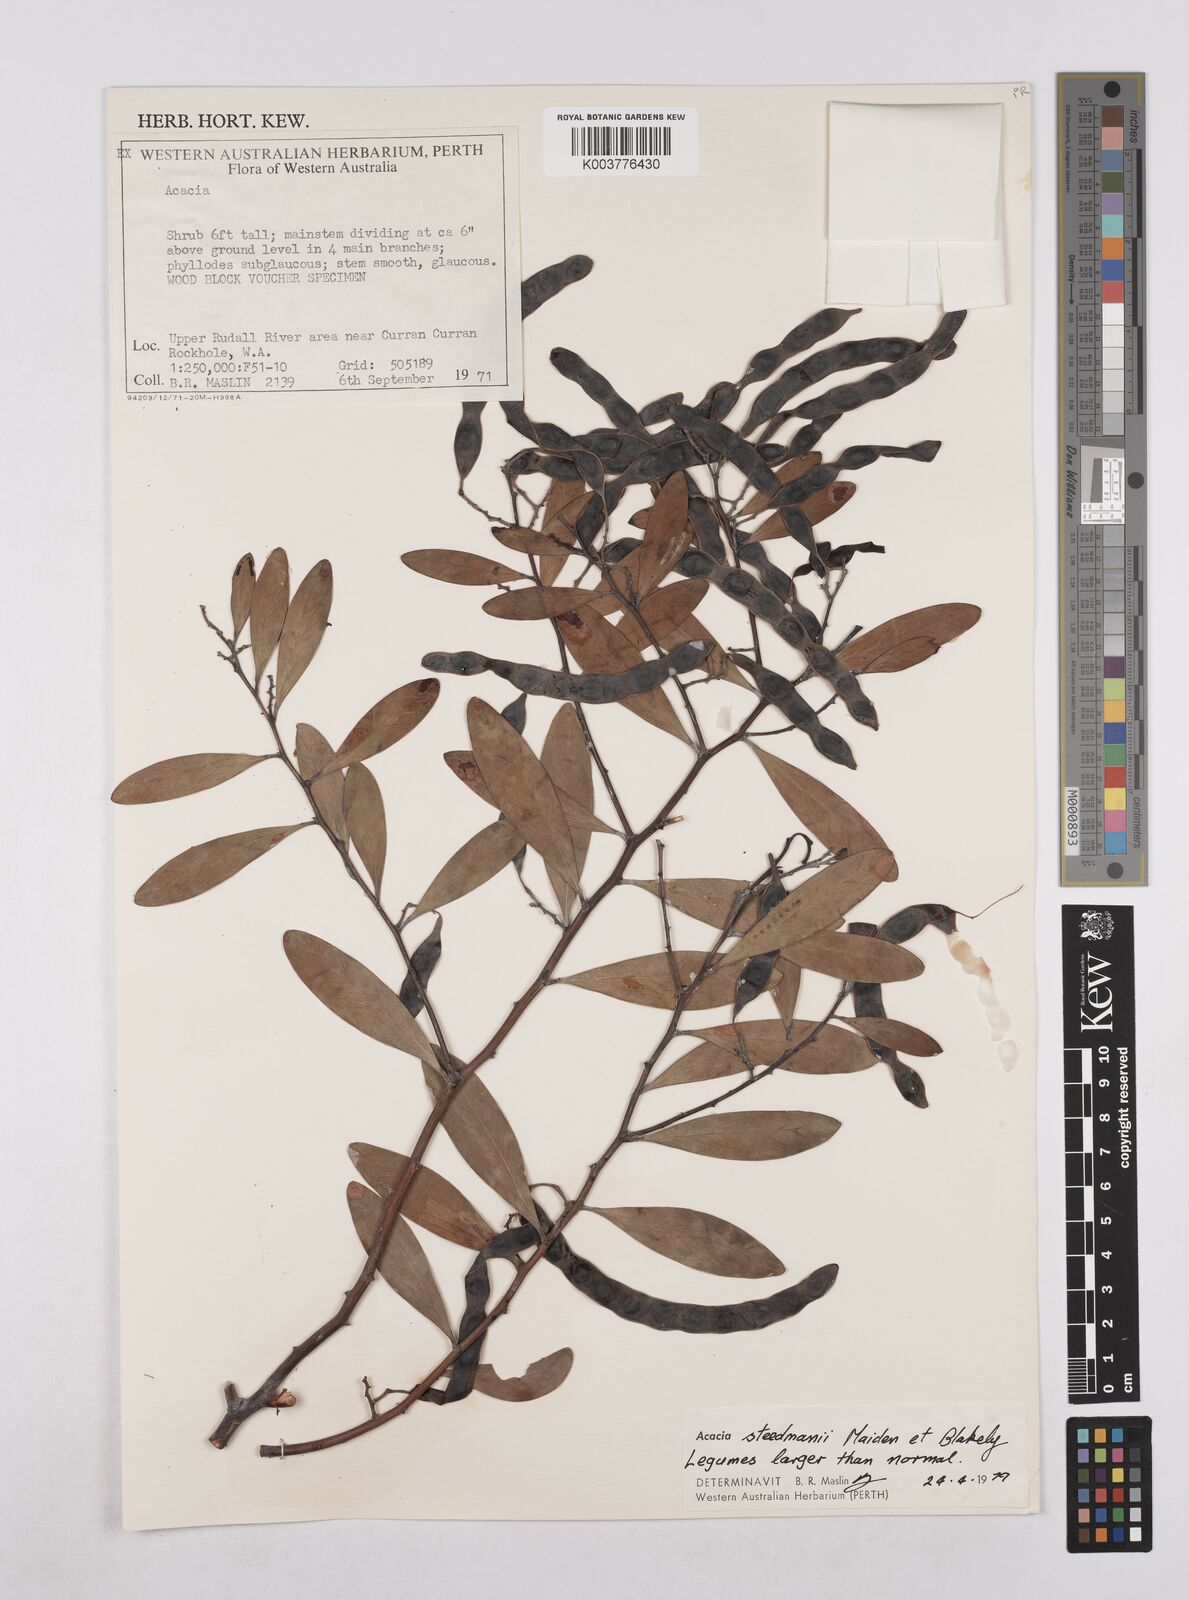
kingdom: Plantae
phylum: Tracheophyta
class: Magnoliopsida
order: Fabales
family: Fabaceae
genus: Acacia
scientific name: Acacia steedmanii
